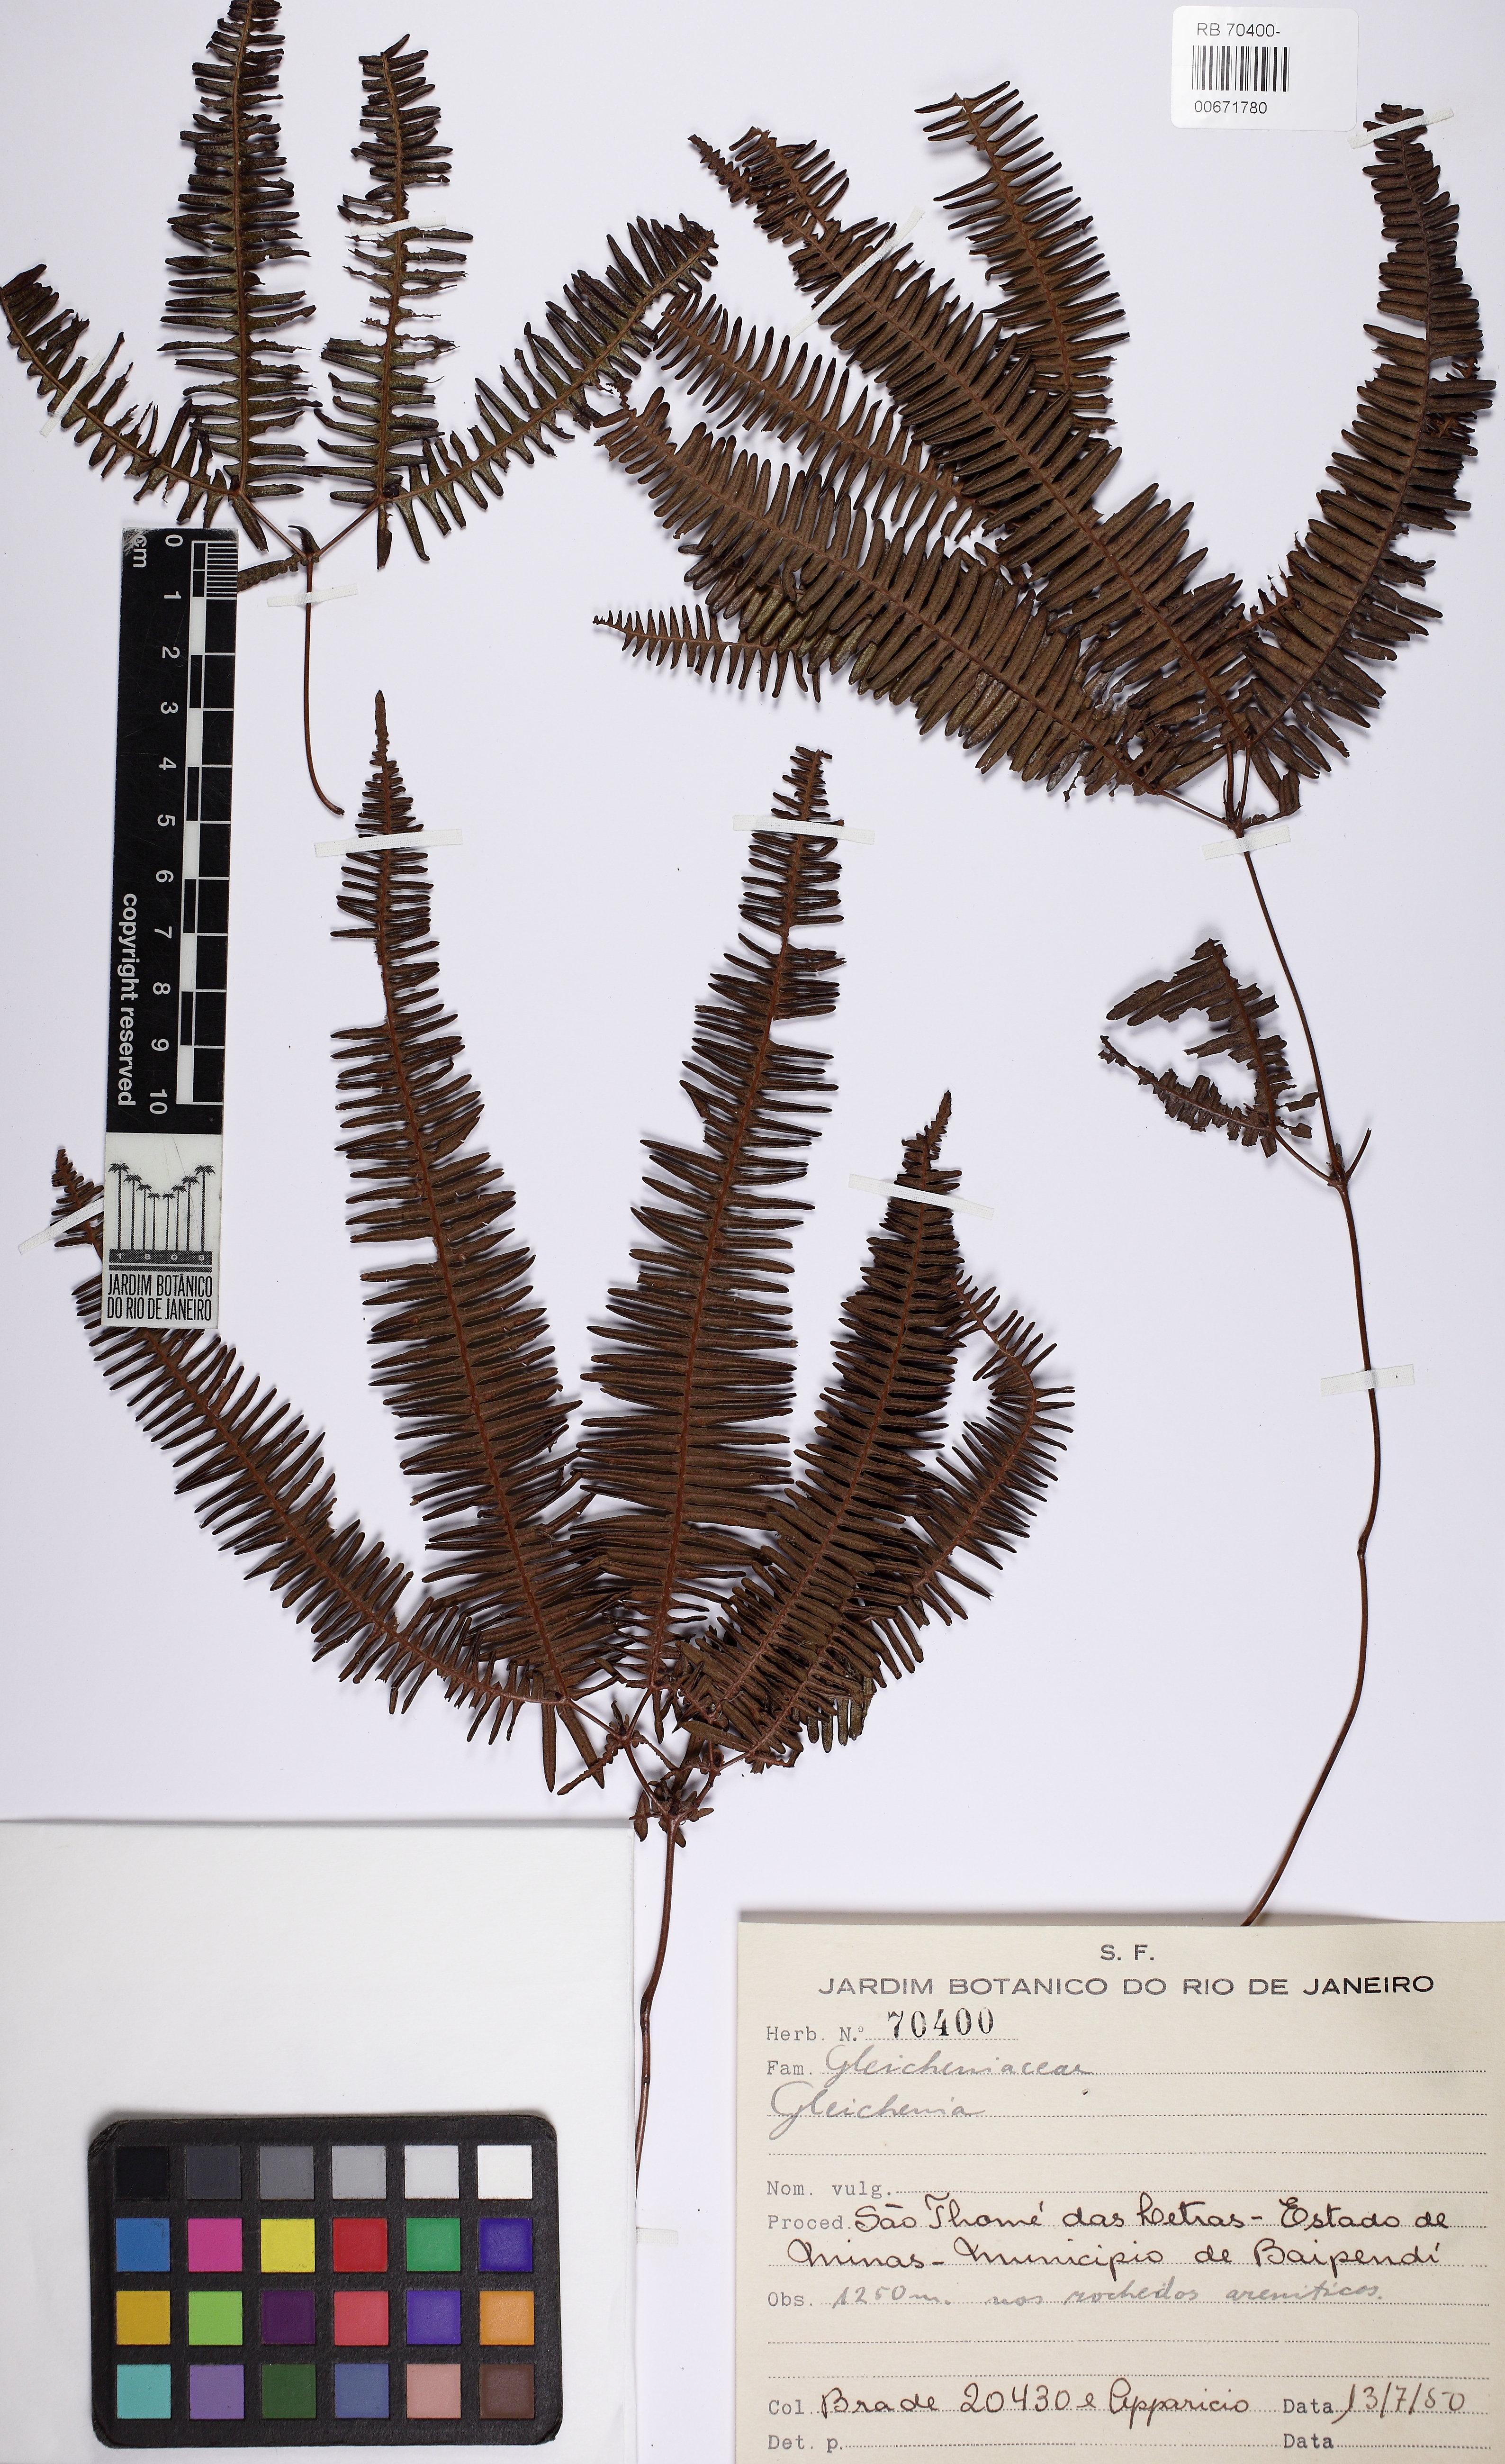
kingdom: Plantae
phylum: Tracheophyta
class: Polypodiopsida
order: Gleicheniales
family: Gleicheniaceae
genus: Dicranopteris
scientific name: Dicranopteris flexuosa
